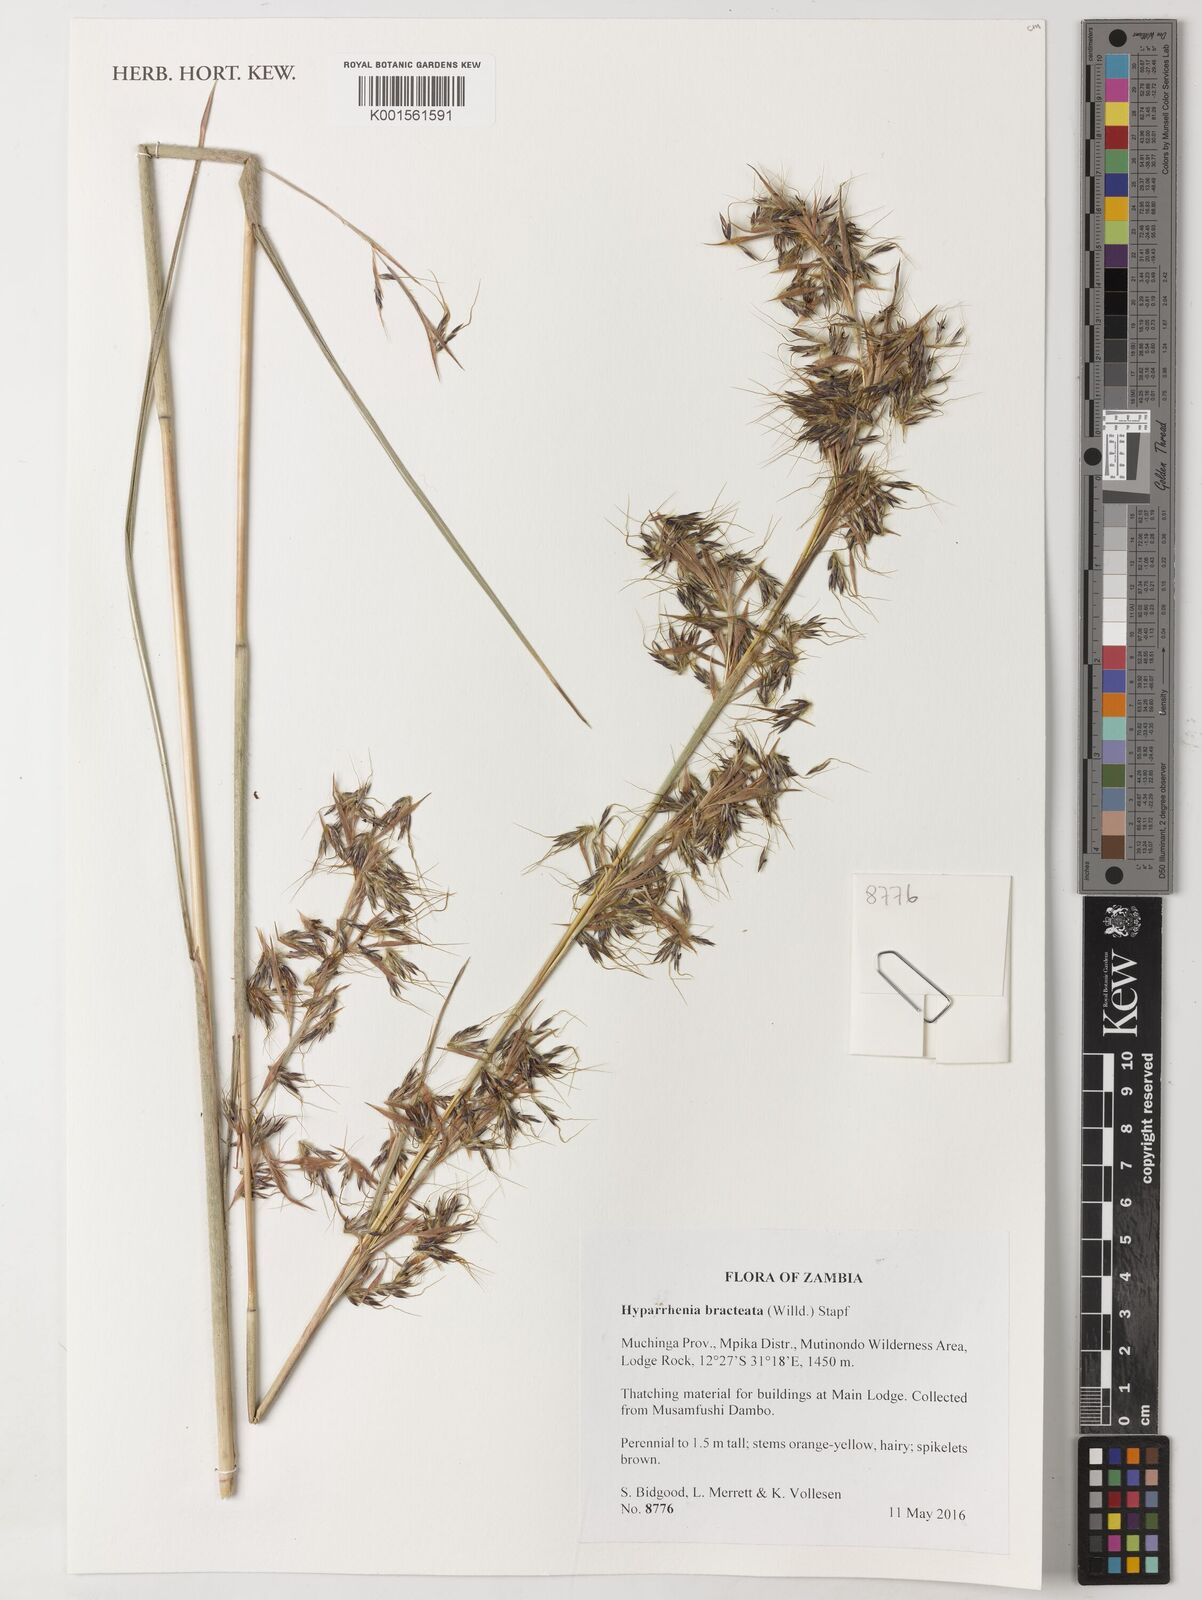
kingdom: Plantae
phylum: Tracheophyta
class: Liliopsida
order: Poales
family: Poaceae
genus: Hyparrhenia
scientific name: Hyparrhenia bracteata
